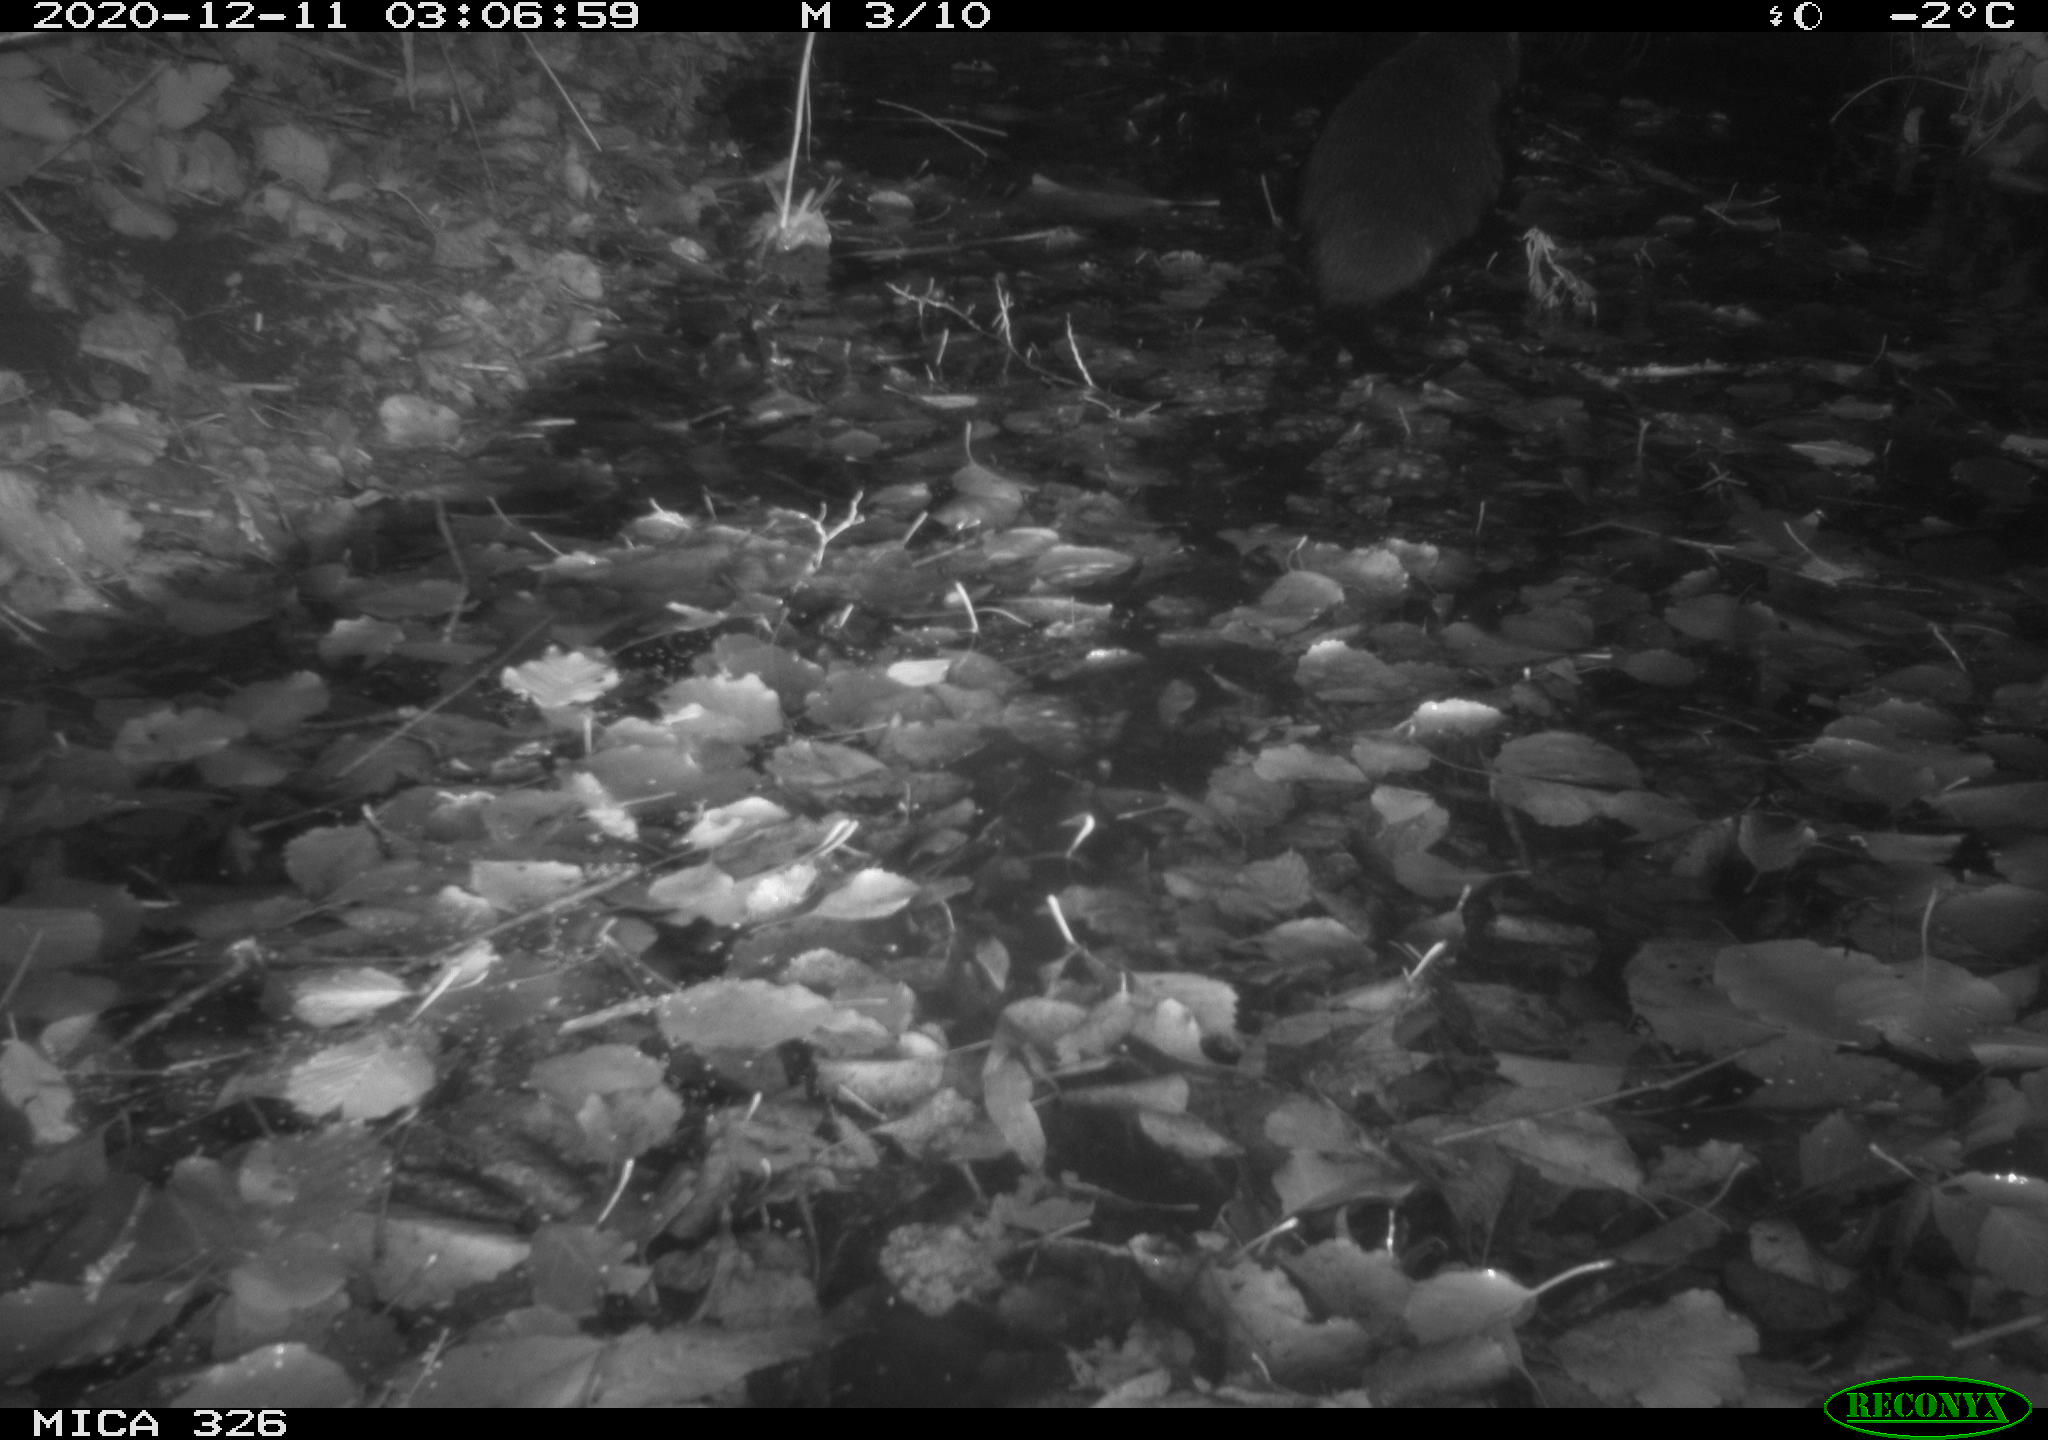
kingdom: Animalia
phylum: Chordata
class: Mammalia
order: Carnivora
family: Mustelidae
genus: Lutra
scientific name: Lutra lutra
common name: European otter
